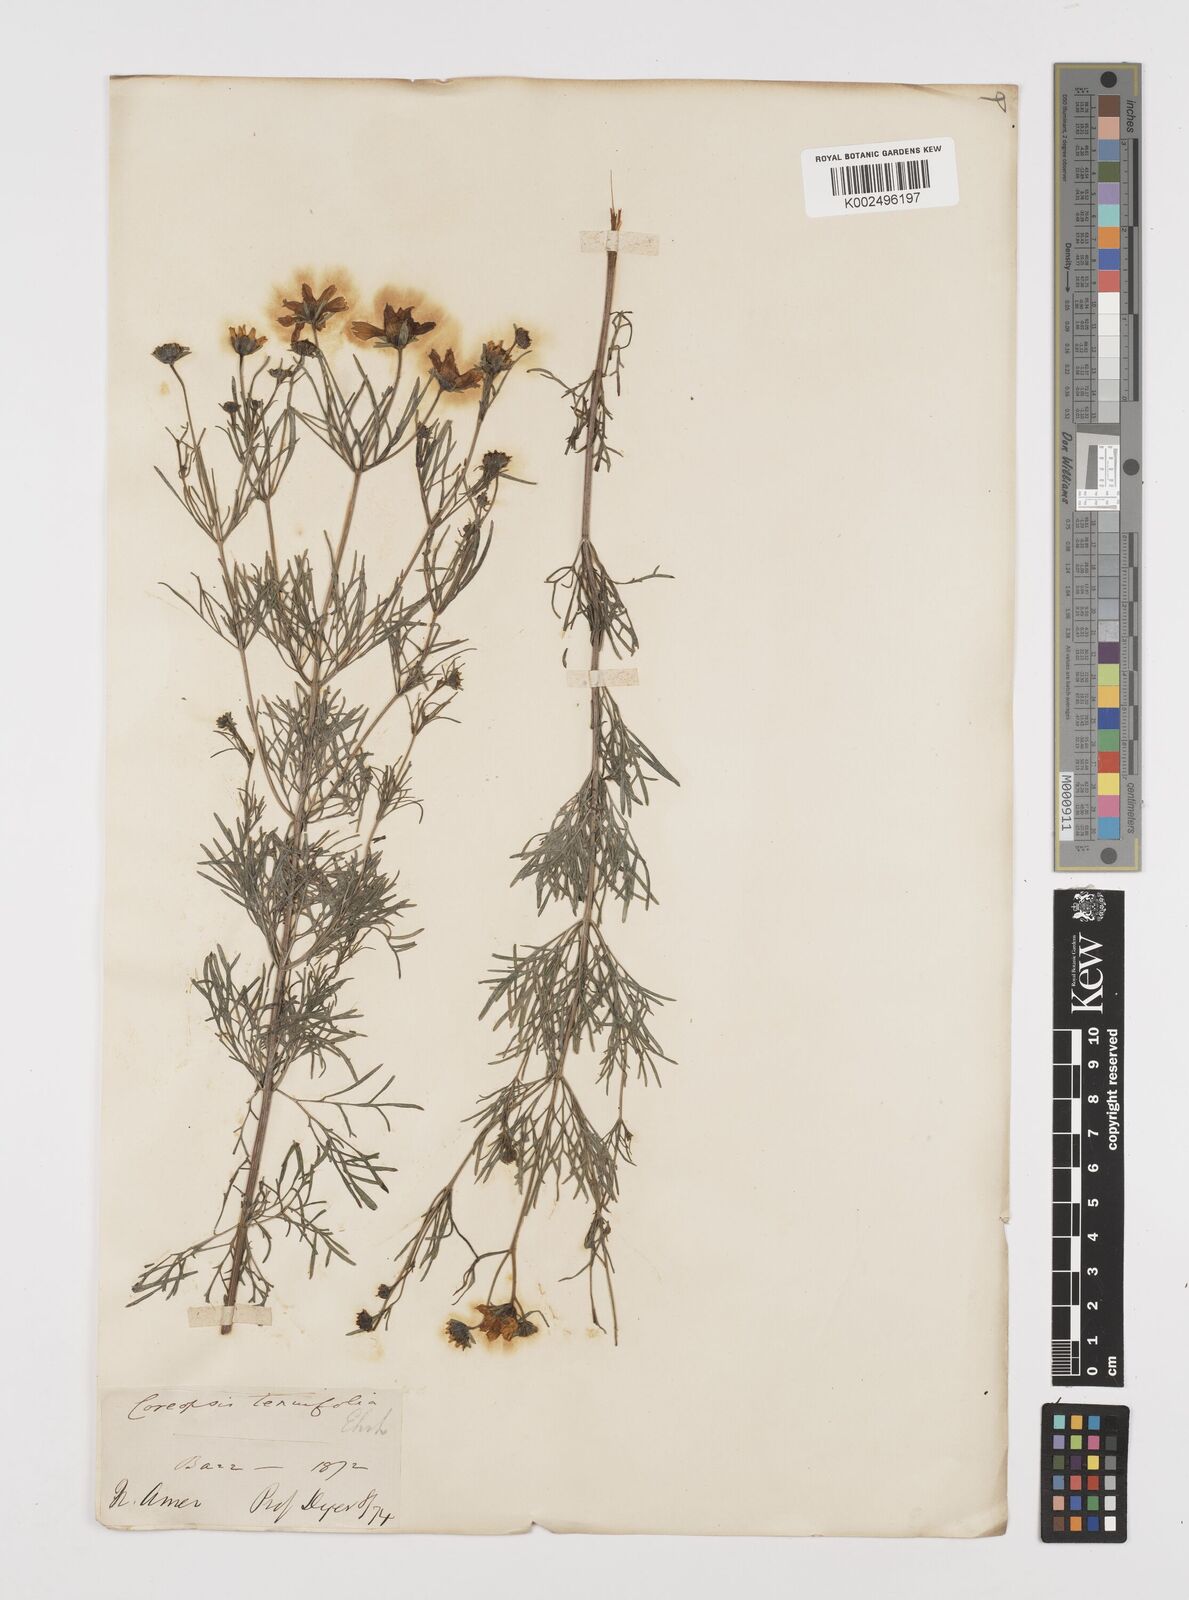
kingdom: Plantae
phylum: Tracheophyta
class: Magnoliopsida
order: Asterales
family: Asteraceae
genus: Coreopsis
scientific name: Coreopsis verticillata
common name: Whorled tickseed
